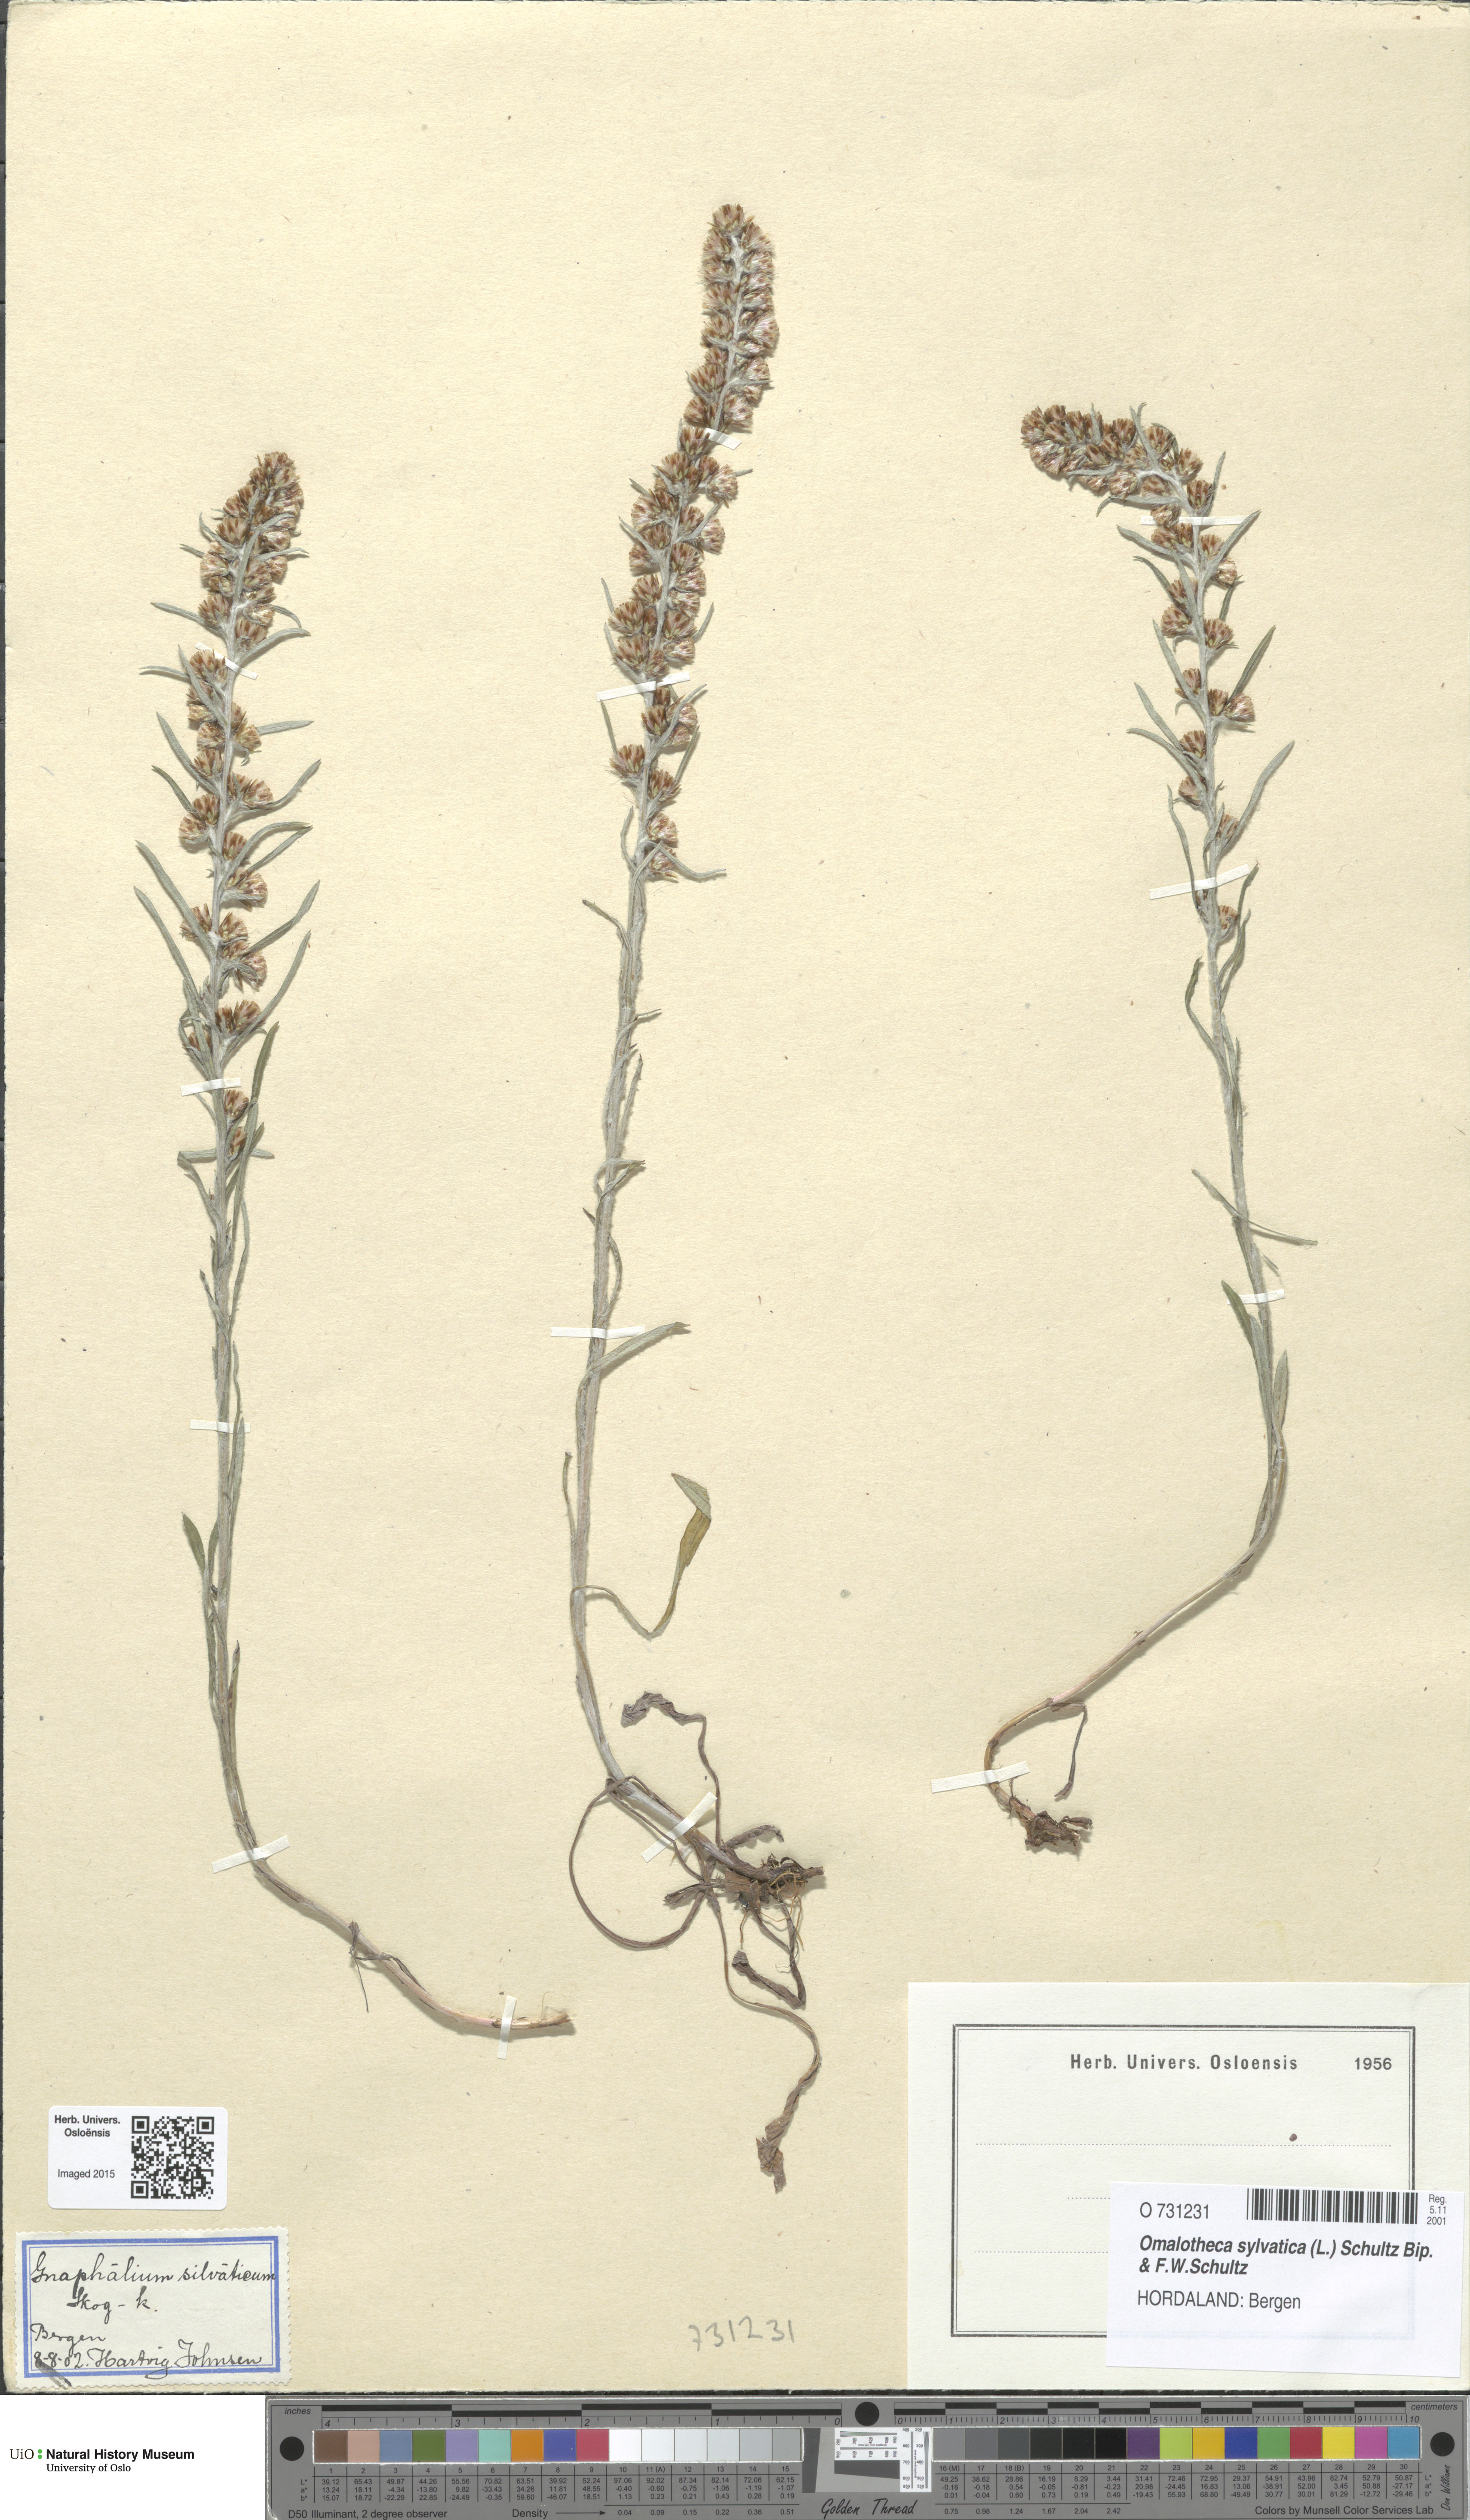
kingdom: Plantae
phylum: Tracheophyta
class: Magnoliopsida
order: Asterales
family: Asteraceae
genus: Omalotheca
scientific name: Omalotheca sylvatica
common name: Heath cudweed
